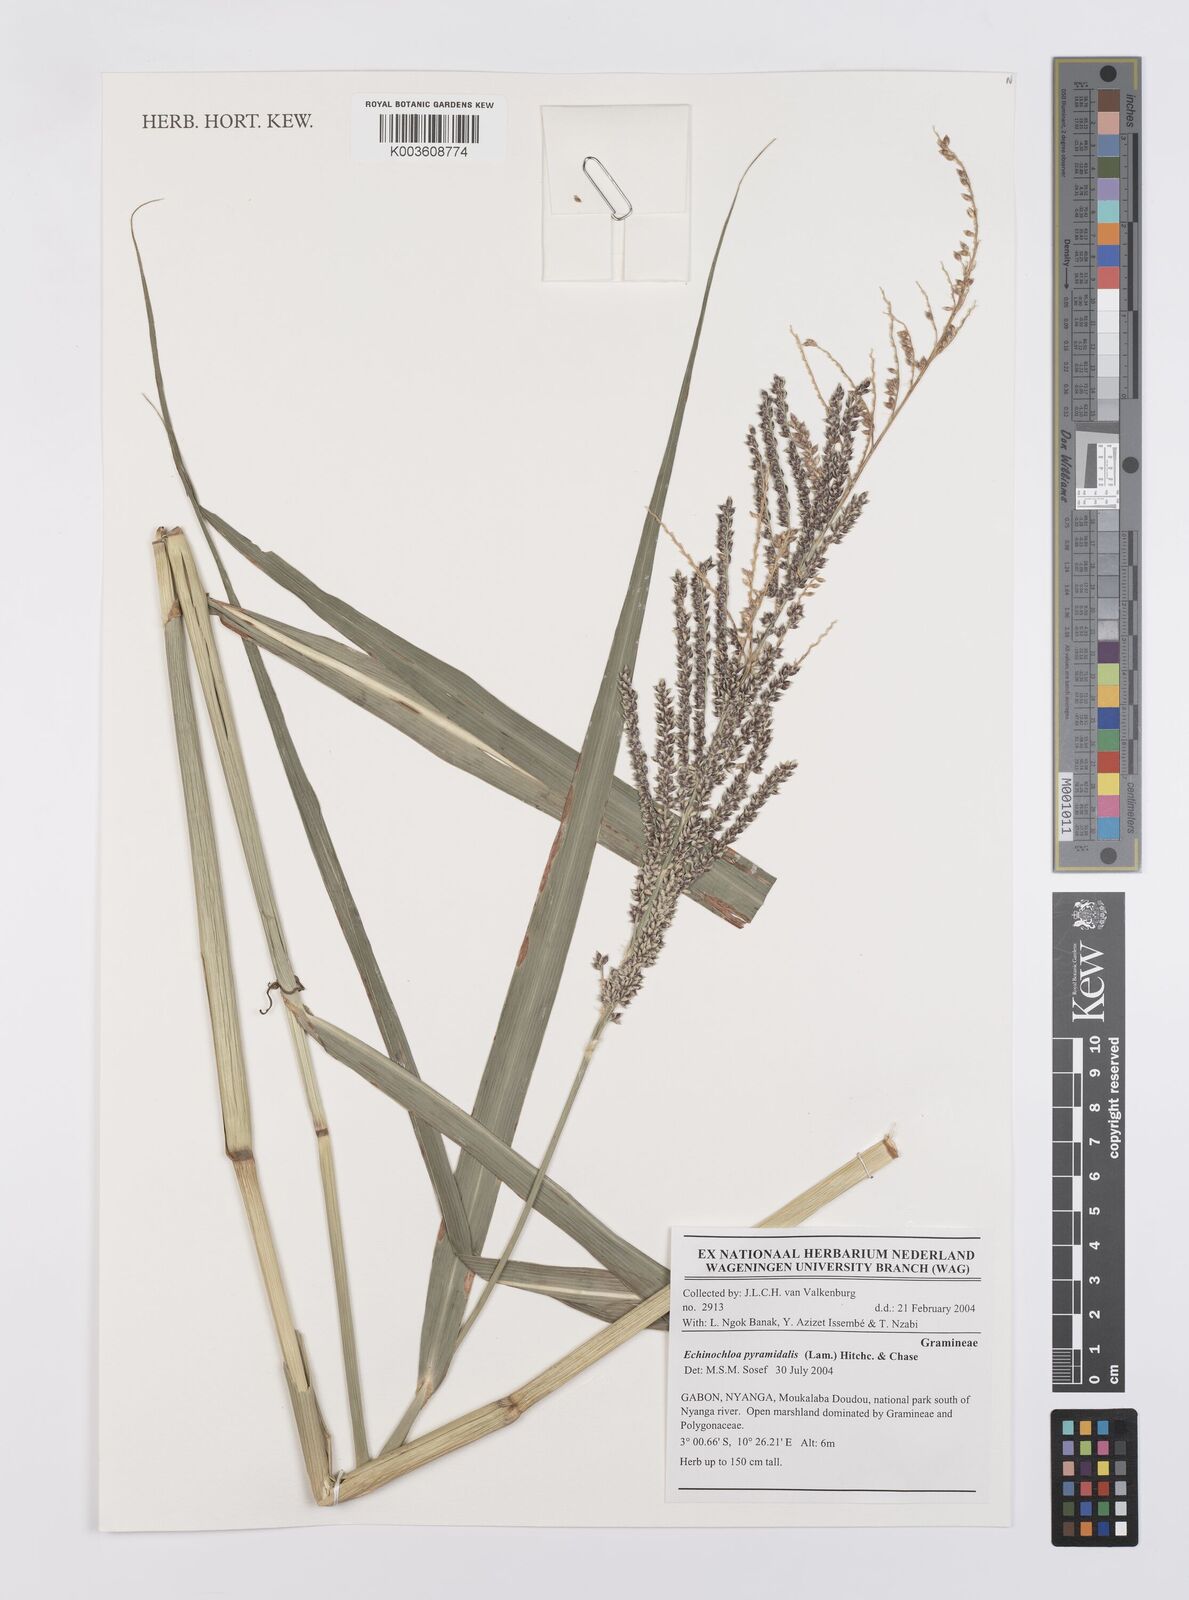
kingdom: Plantae
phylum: Tracheophyta
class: Liliopsida
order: Poales
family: Poaceae
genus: Echinochloa
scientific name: Echinochloa pyramidalis
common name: Antelope grass
